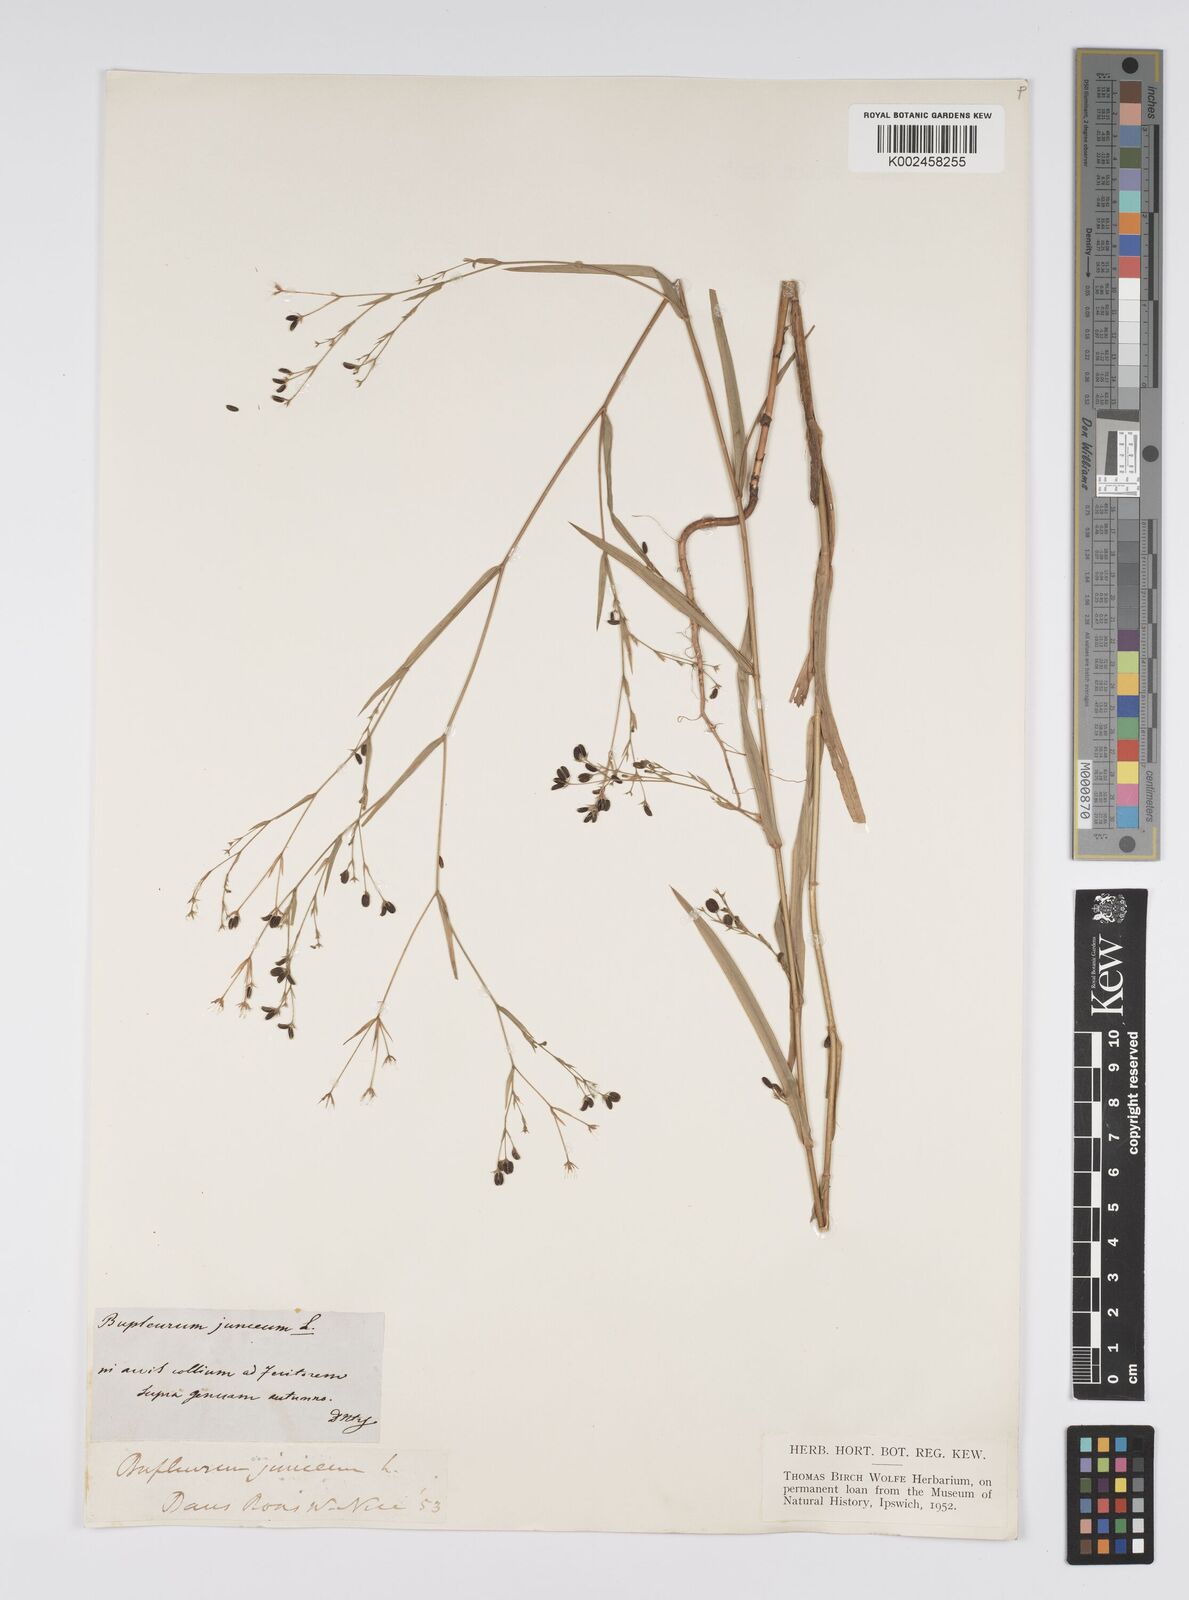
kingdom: Plantae
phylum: Tracheophyta
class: Magnoliopsida
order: Apiales
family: Apiaceae
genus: Bupleurum
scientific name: Bupleurum praealtum
